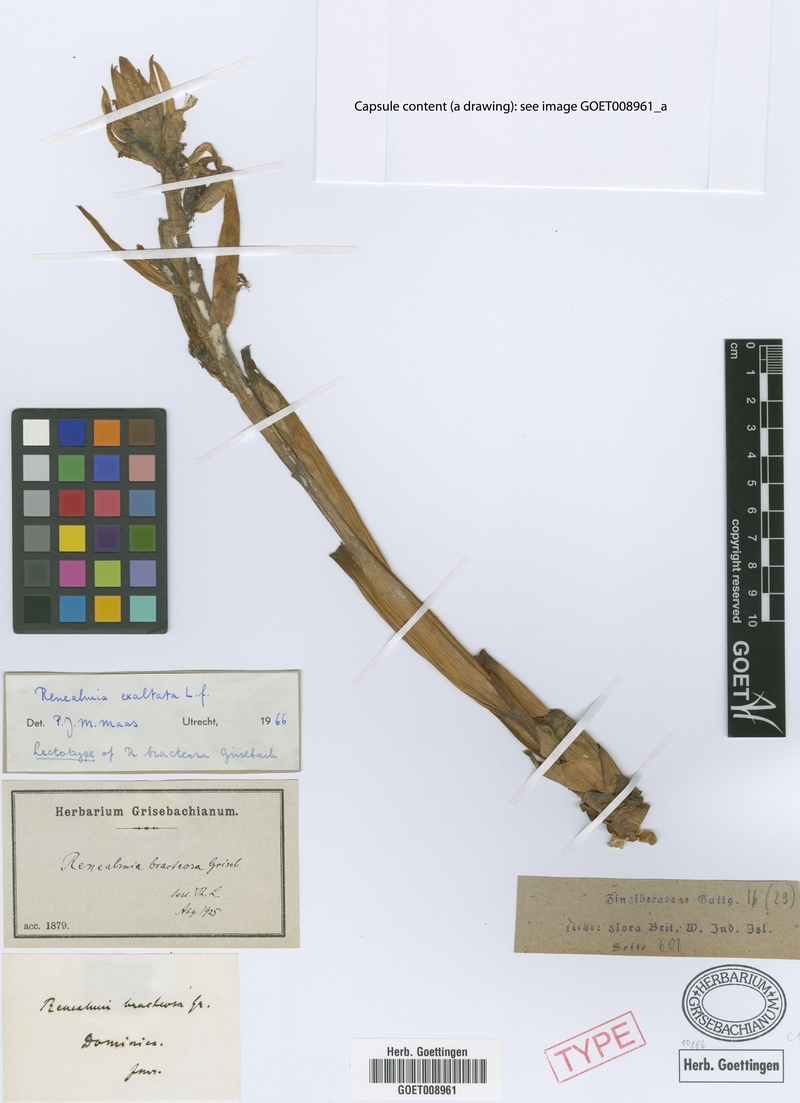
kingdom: Plantae
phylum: Tracheophyta
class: Liliopsida
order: Zingiberales
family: Zingiberaceae
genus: Renealmia
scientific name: Renealmia alpinia
